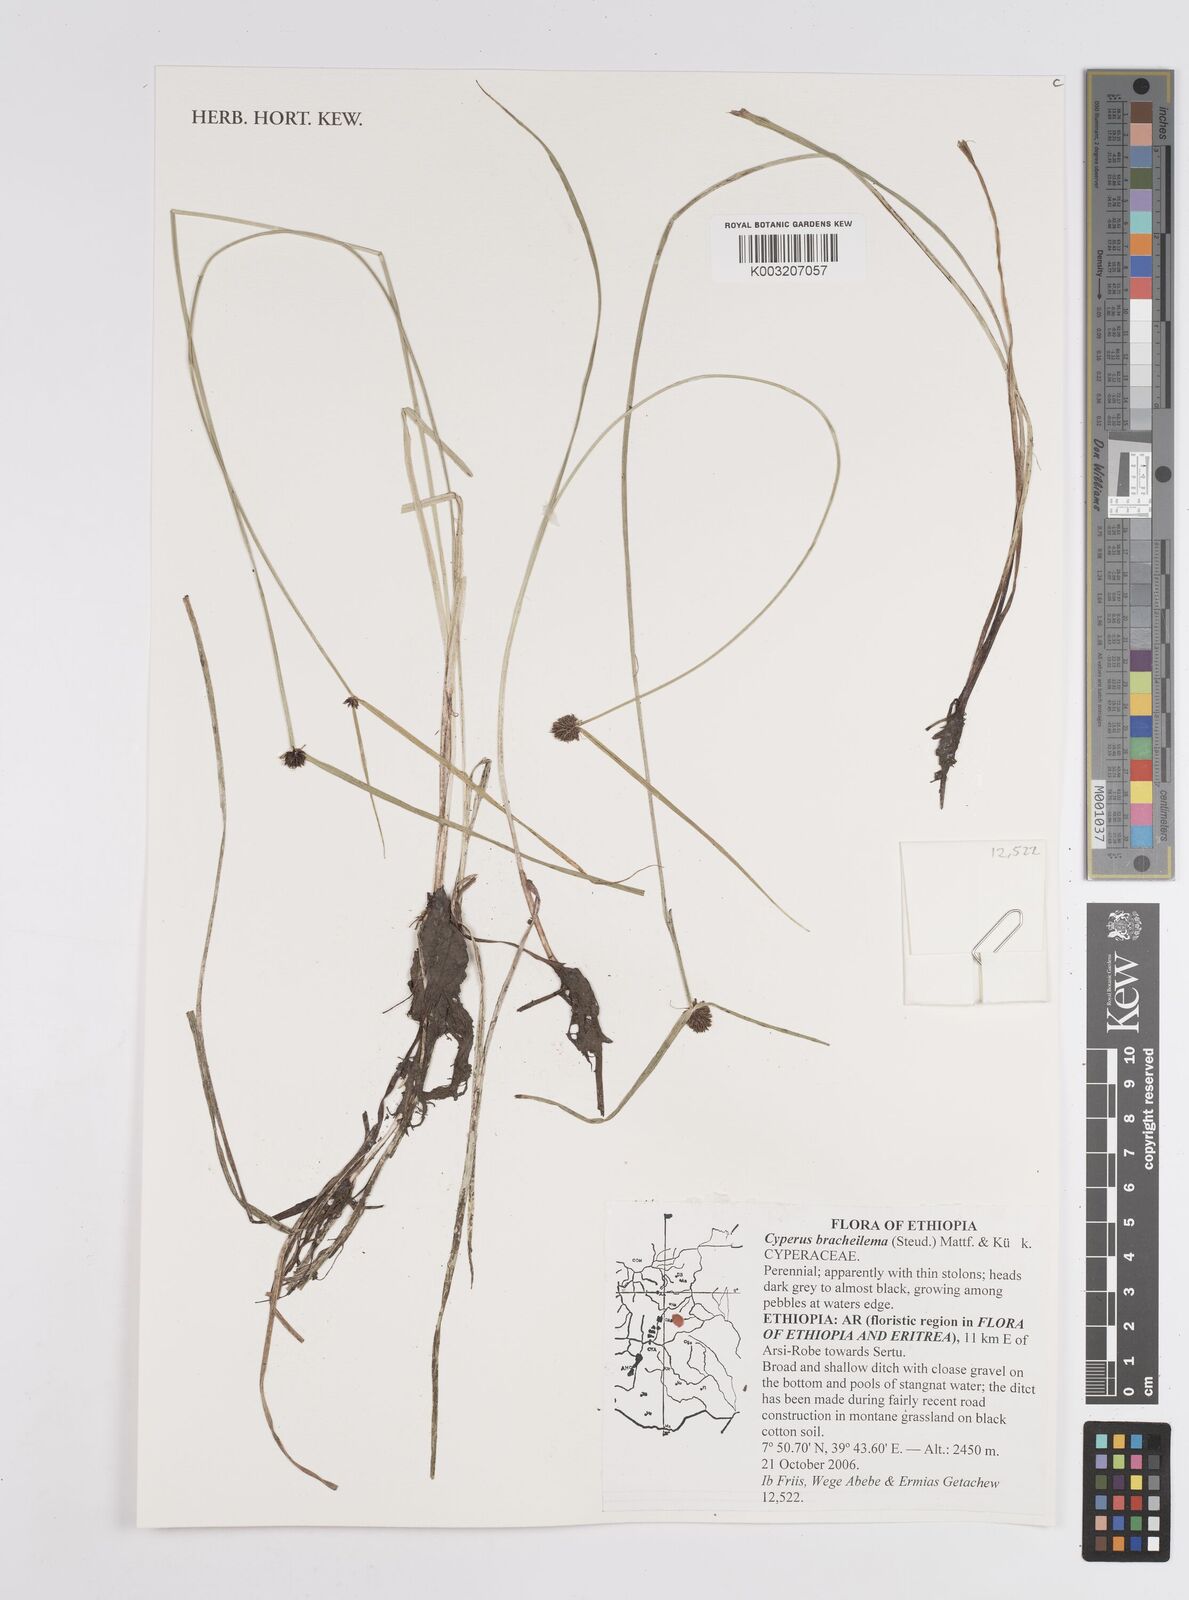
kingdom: Plantae
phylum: Tracheophyta
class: Liliopsida
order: Poales
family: Cyperaceae
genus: Cyperus
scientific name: Cyperus bracheilema
